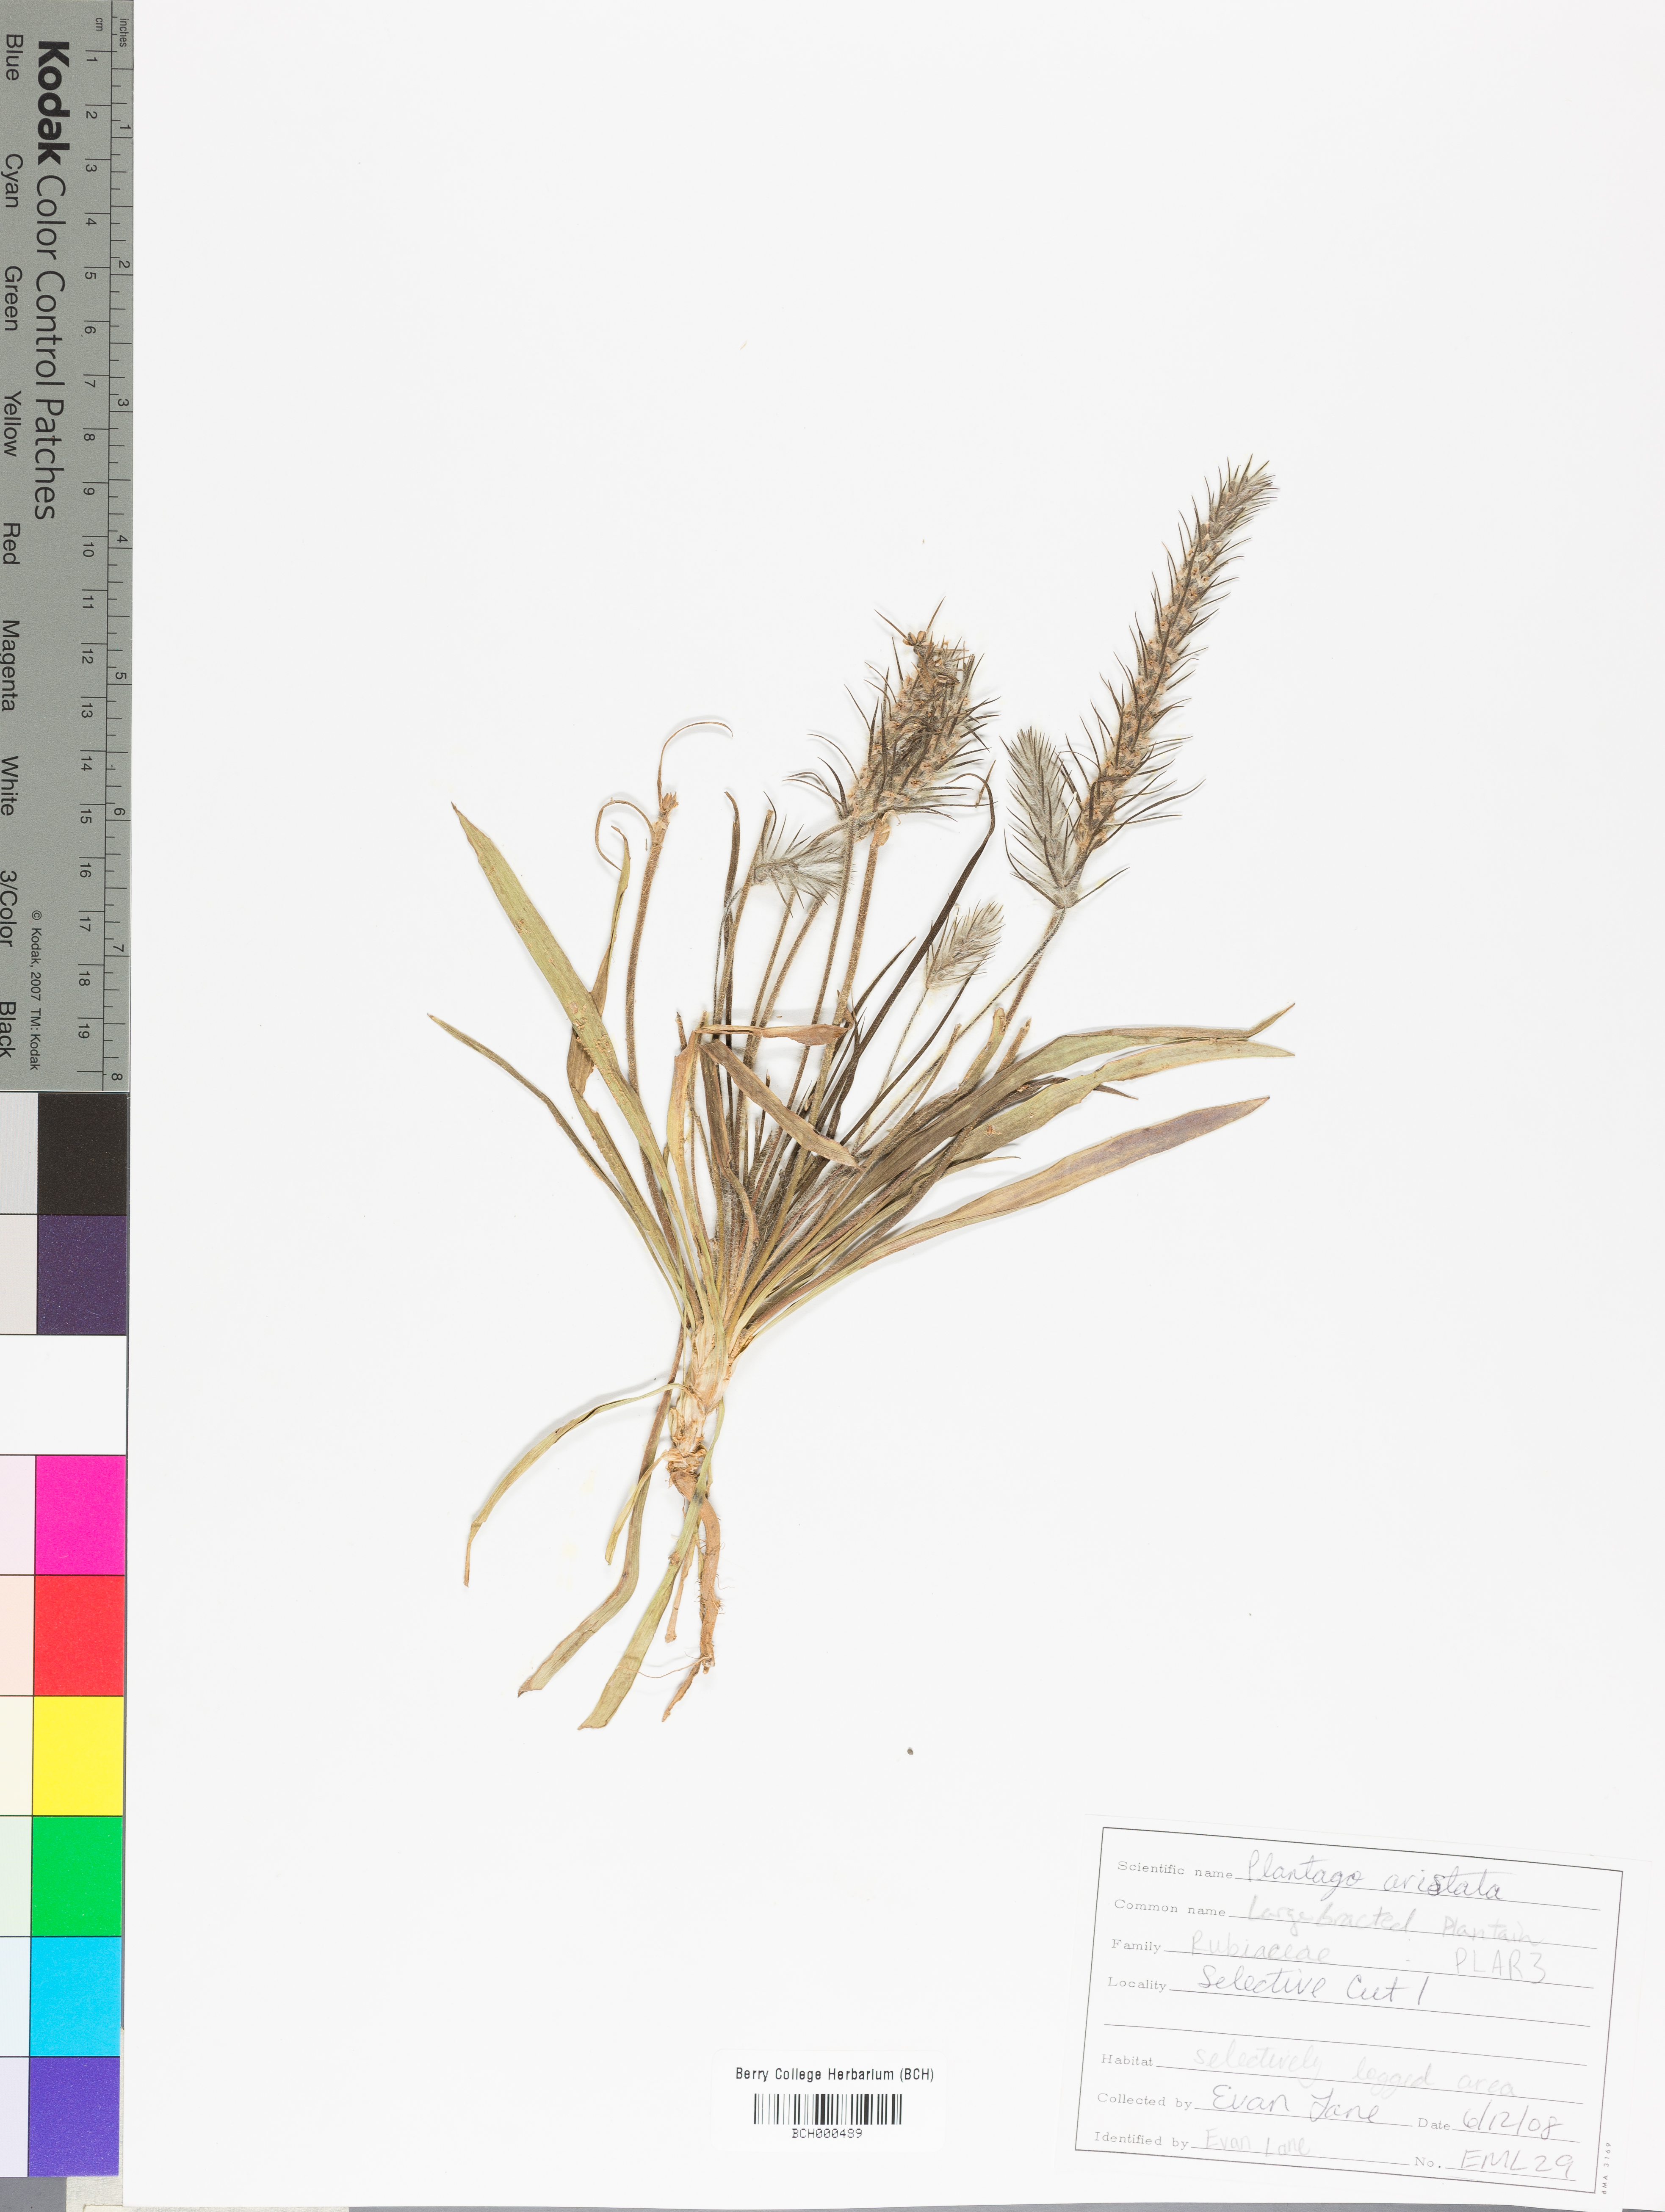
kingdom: Plantae
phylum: Tracheophyta
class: Magnoliopsida
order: Lamiales
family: Plantaginaceae
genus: Plantago
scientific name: Plantago aristata
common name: Bracted plantain
